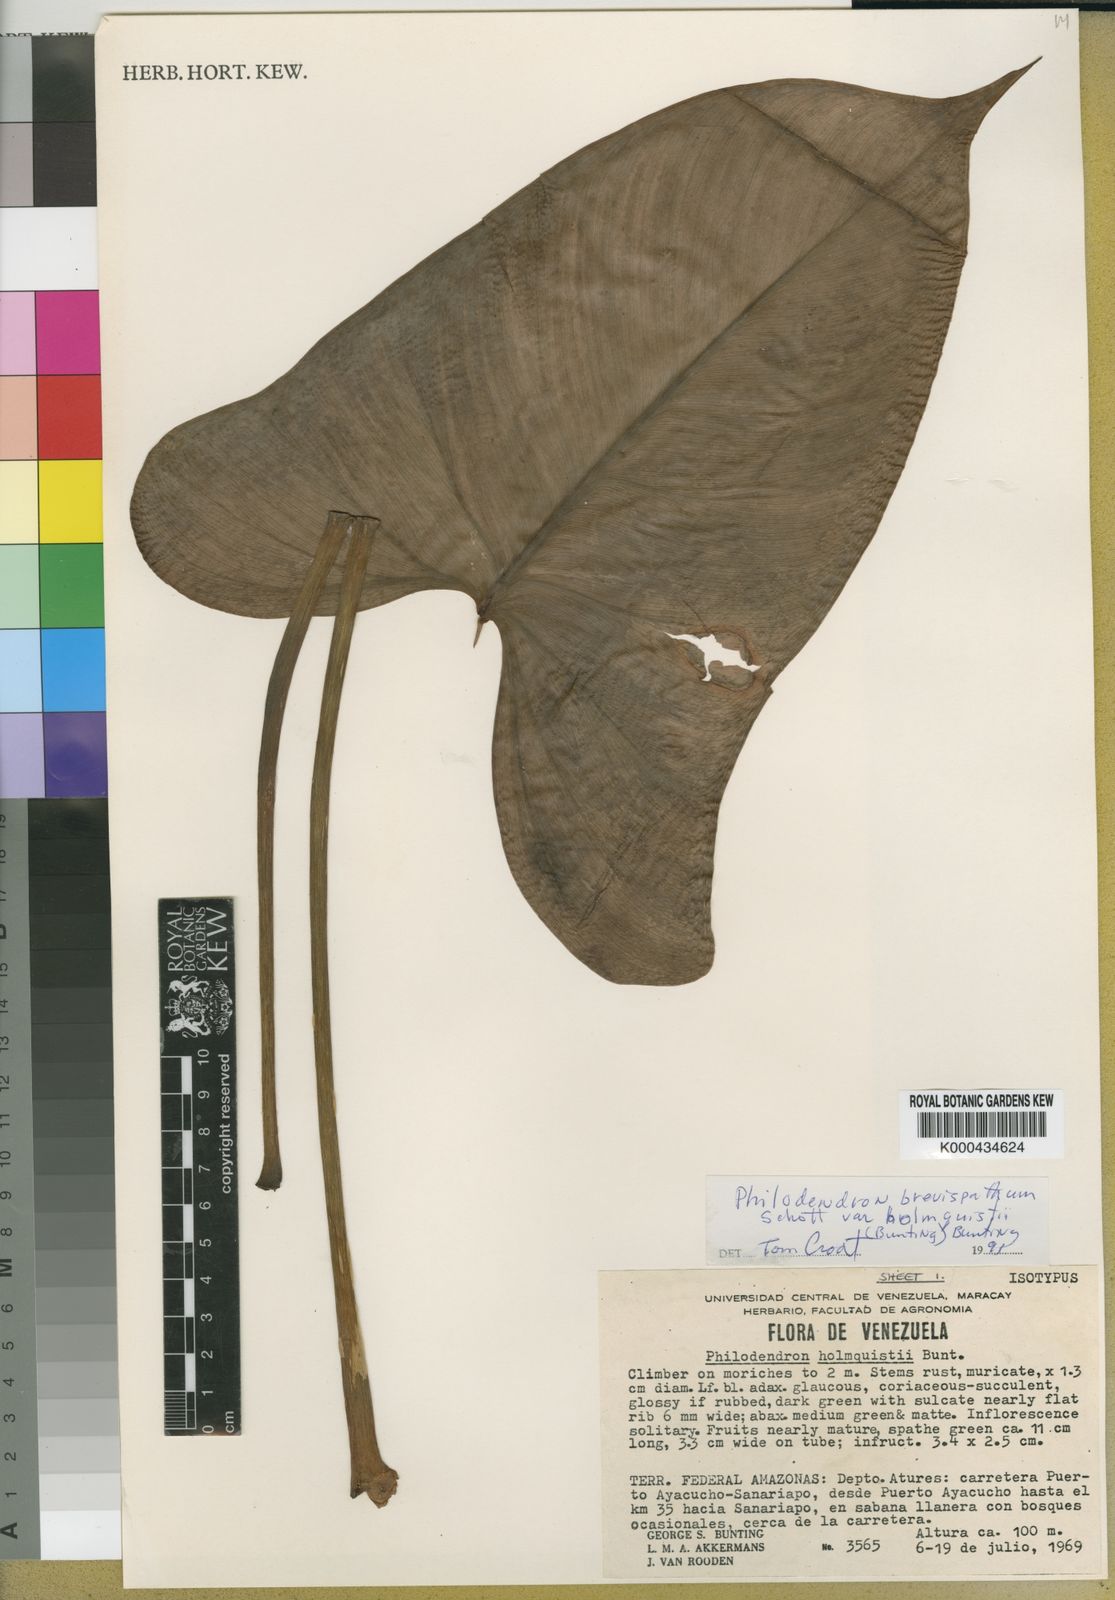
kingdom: Plantae
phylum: Tracheophyta
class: Liliopsida
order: Alismatales
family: Araceae
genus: Philodendron
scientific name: Philodendron brevispathum
